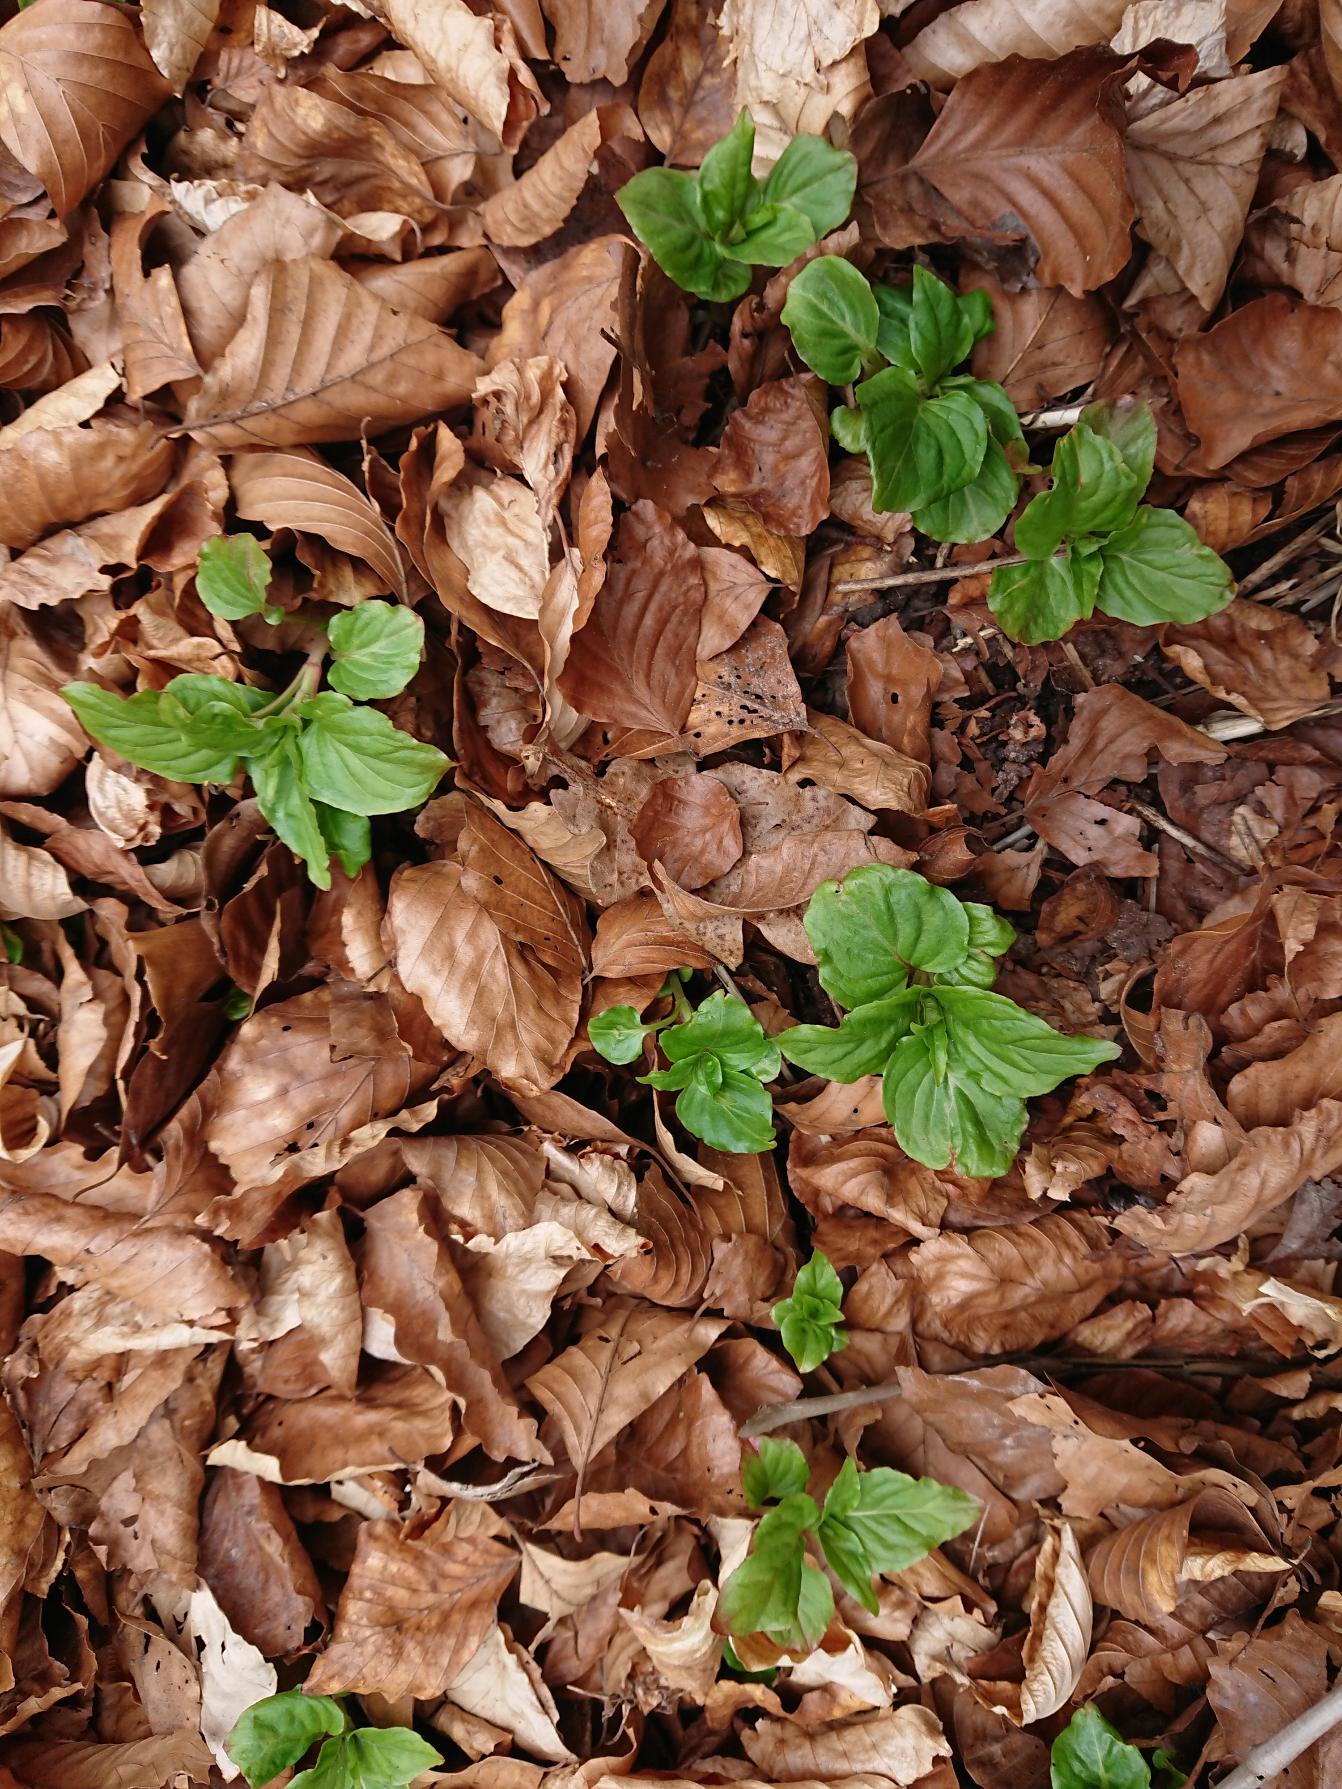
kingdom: Plantae
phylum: Tracheophyta
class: Magnoliopsida
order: Myrtales
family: Onagraceae
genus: Circaea
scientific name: Circaea lutetiana
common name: Dunet steffensurt
